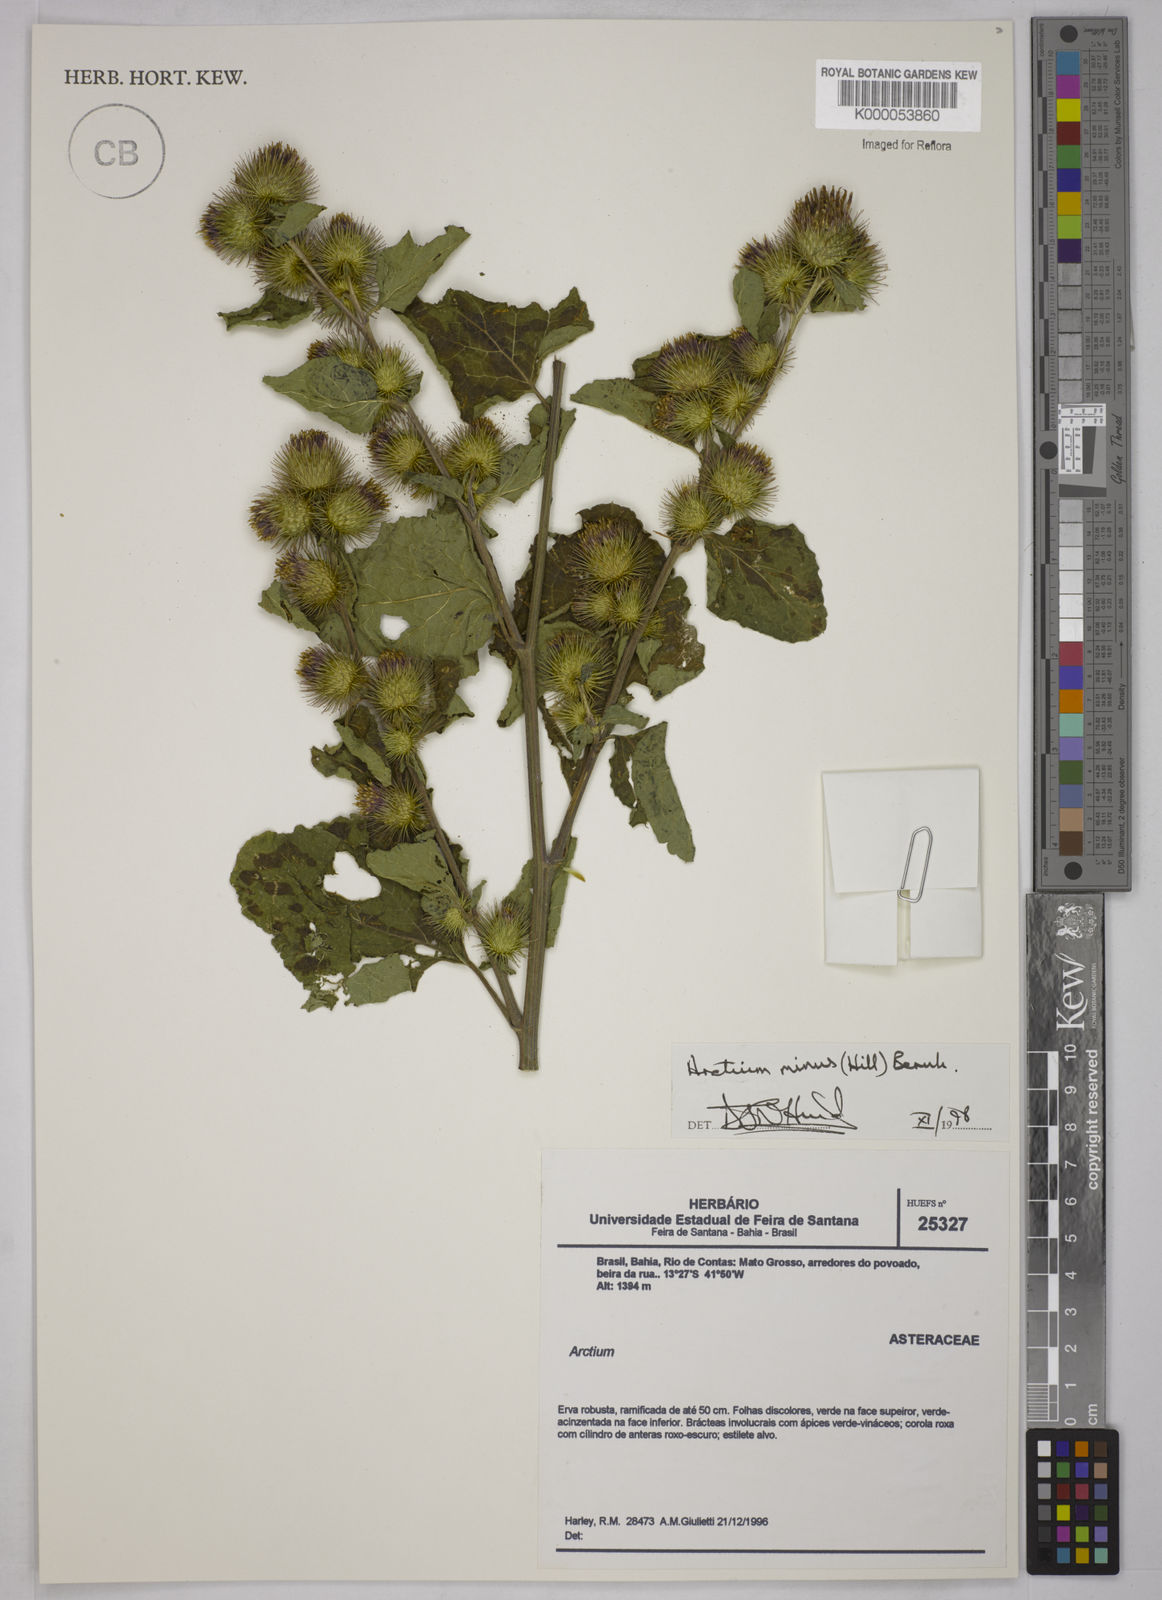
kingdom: Plantae
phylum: Tracheophyta
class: Magnoliopsida
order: Asterales
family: Asteraceae
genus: Arctium
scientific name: Arctium minus
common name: Lesser burdock
